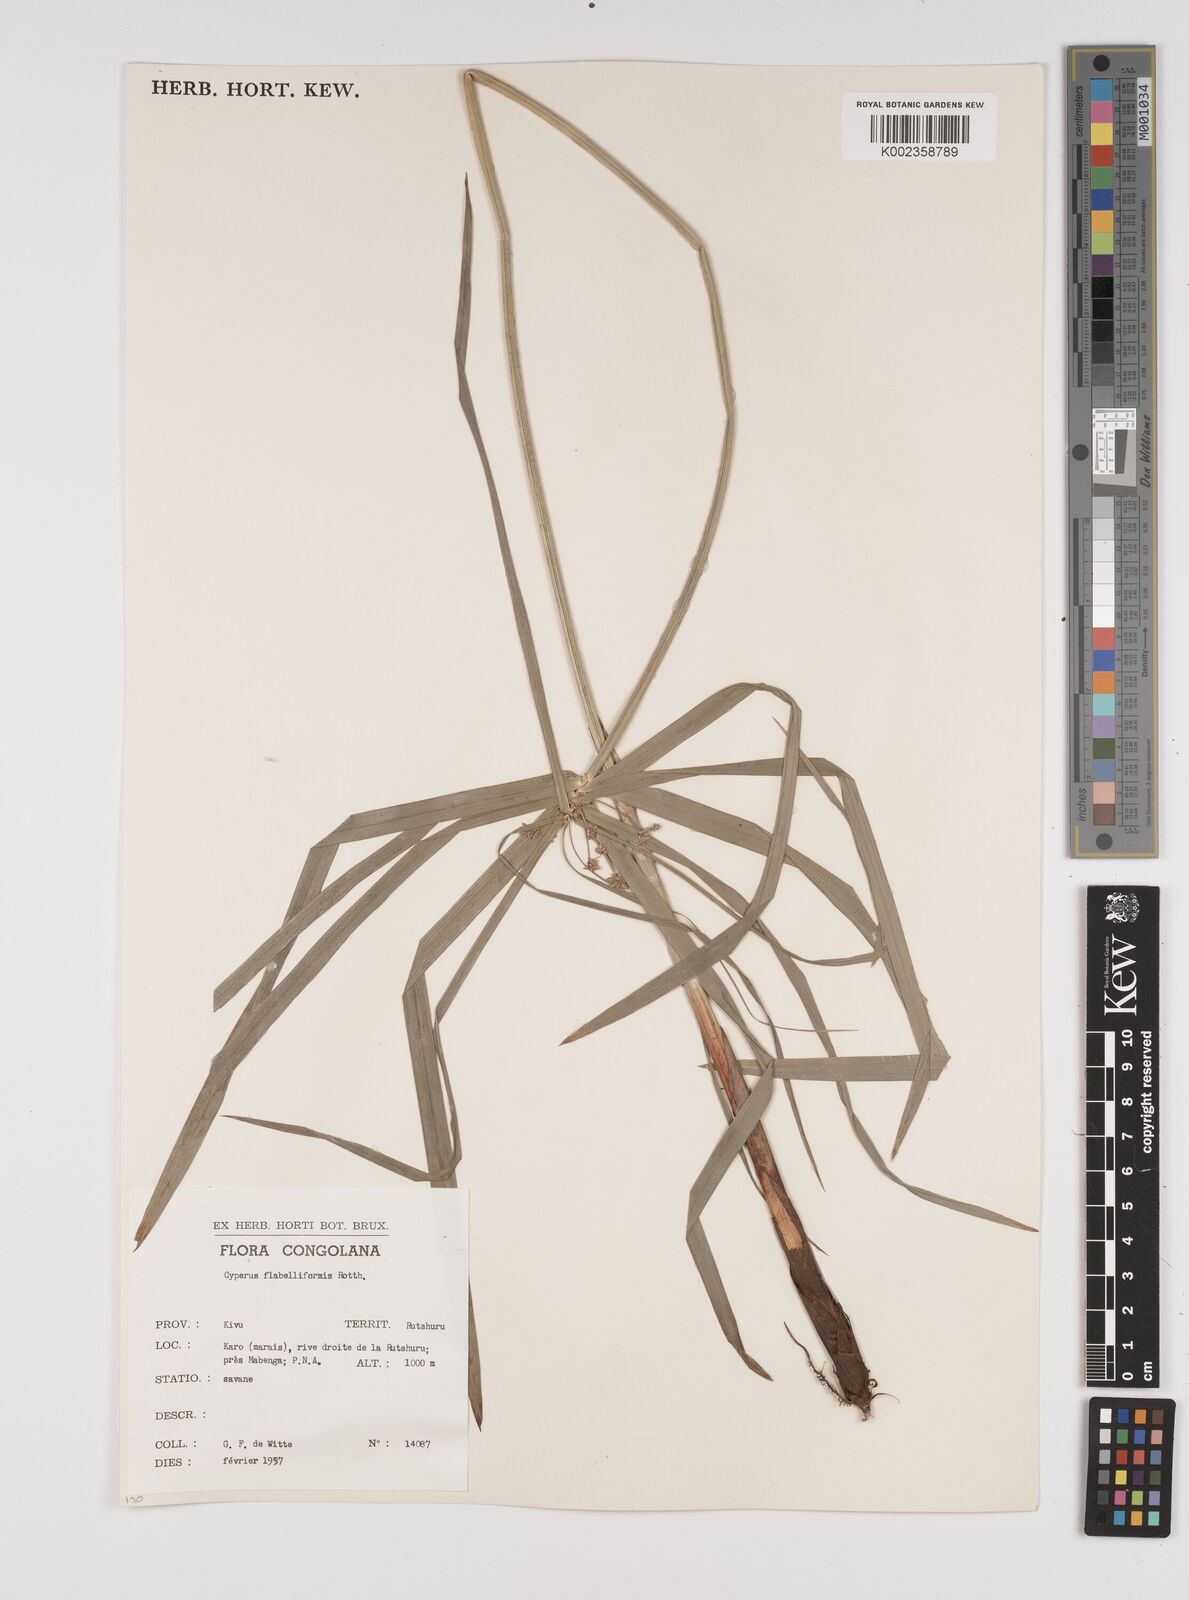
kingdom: Plantae
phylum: Tracheophyta
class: Liliopsida
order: Poales
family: Cyperaceae
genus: Cyperus
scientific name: Cyperus alternifolius
